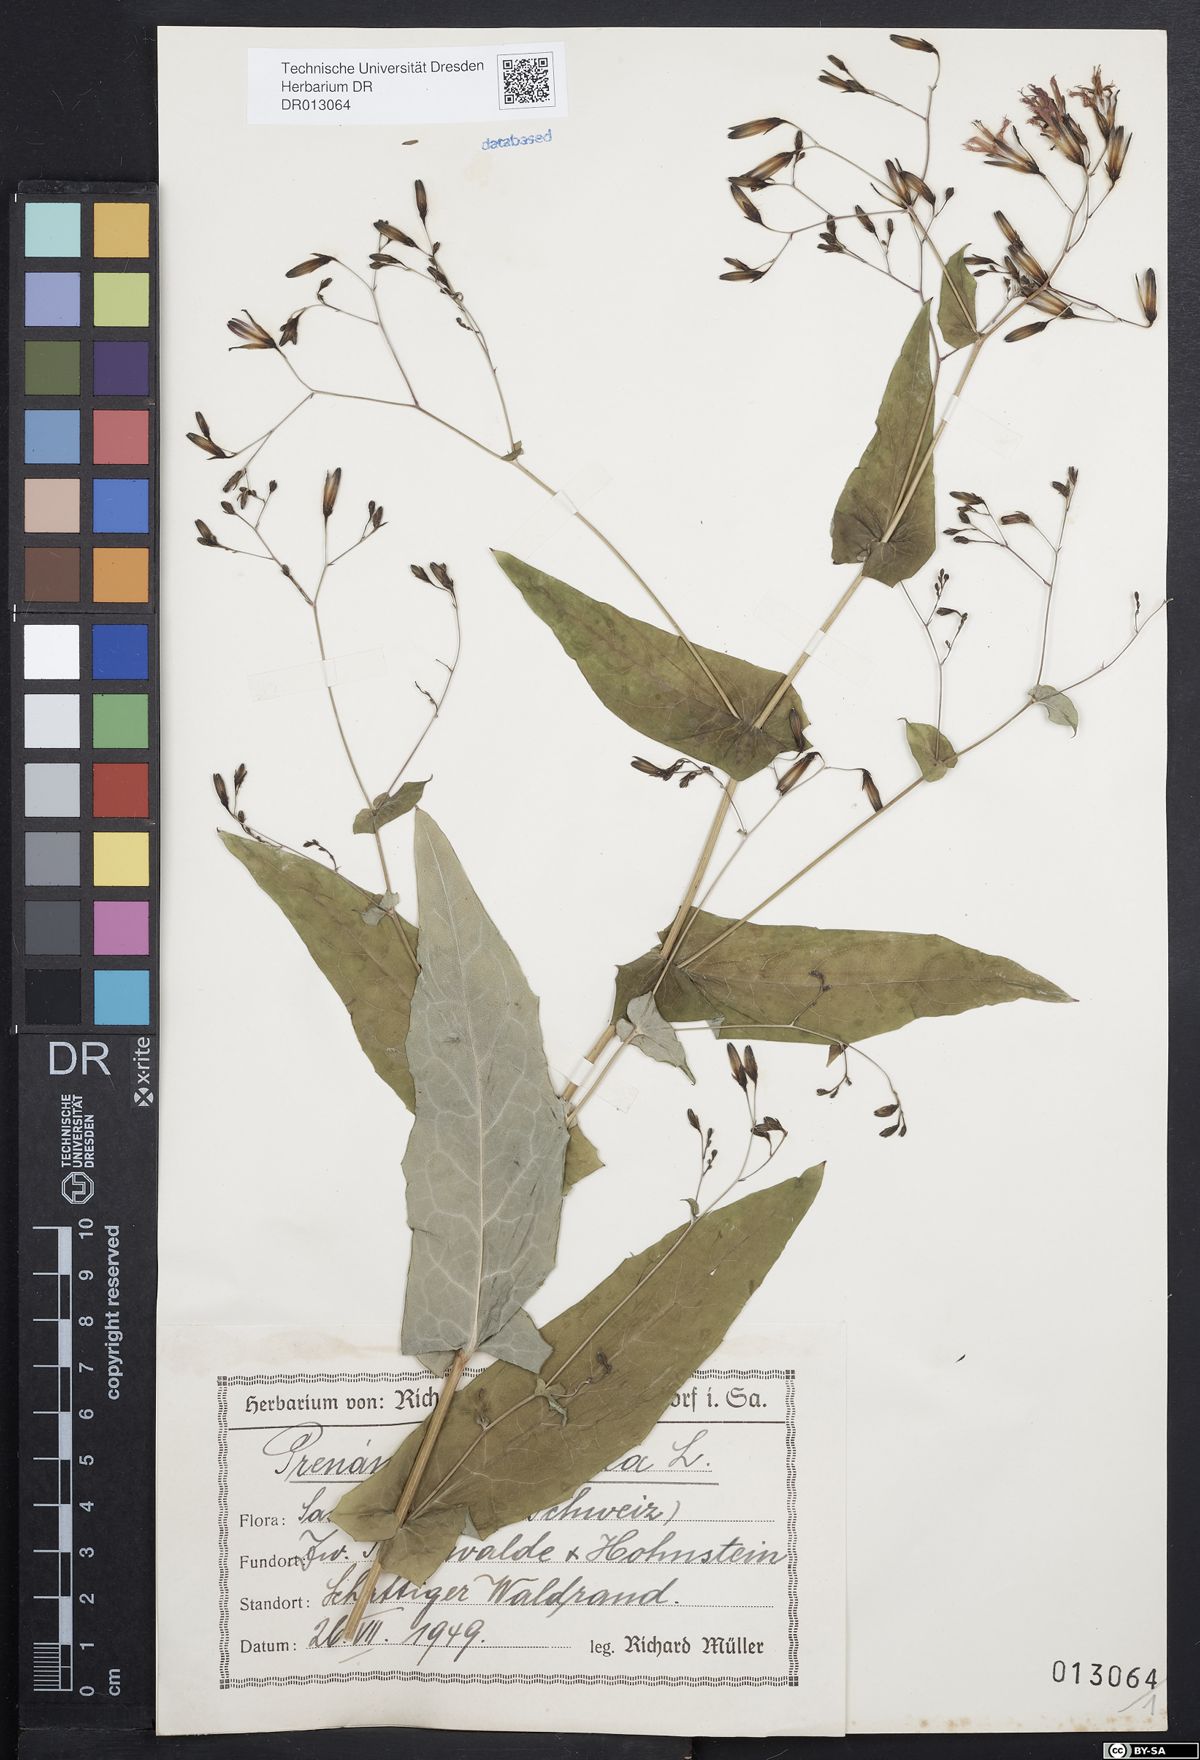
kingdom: Plantae
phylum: Tracheophyta
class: Magnoliopsida
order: Asterales
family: Asteraceae
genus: Prenanthes
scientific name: Prenanthes purpurea
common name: Purple lettuce
